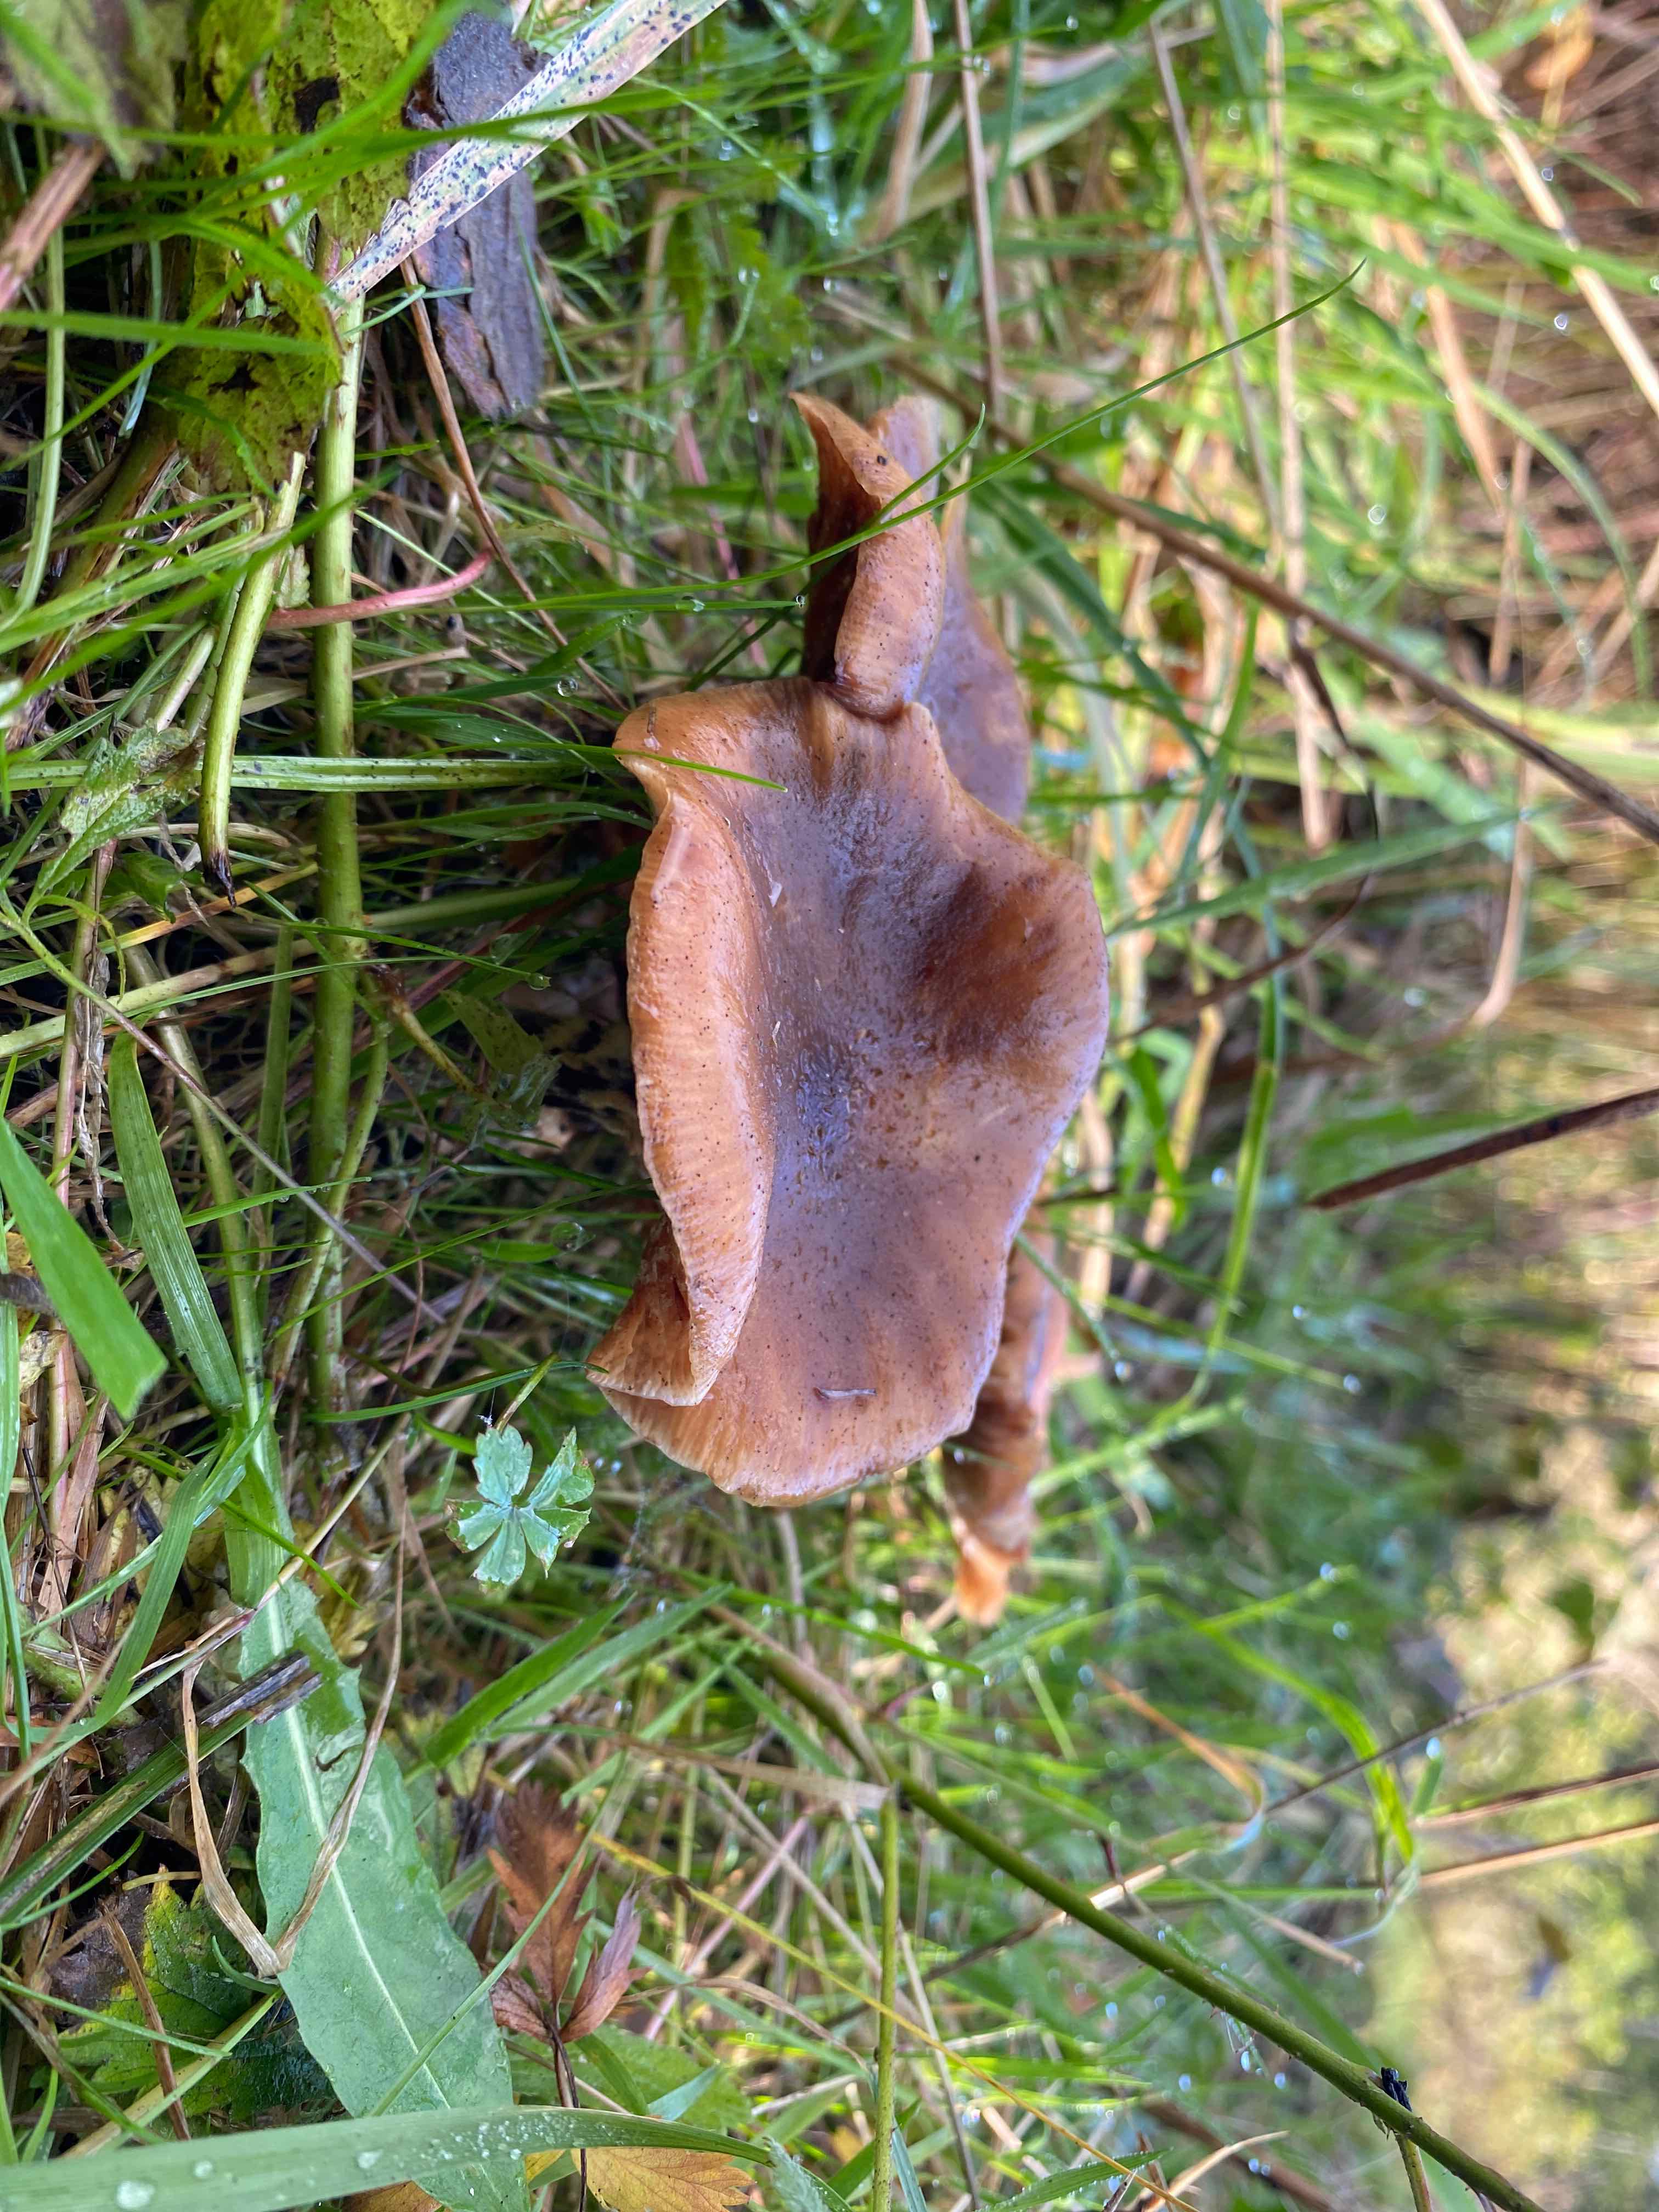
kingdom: Fungi
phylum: Basidiomycota
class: Agaricomycetes
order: Agaricales
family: Physalacriaceae
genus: Armillaria
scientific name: Armillaria
